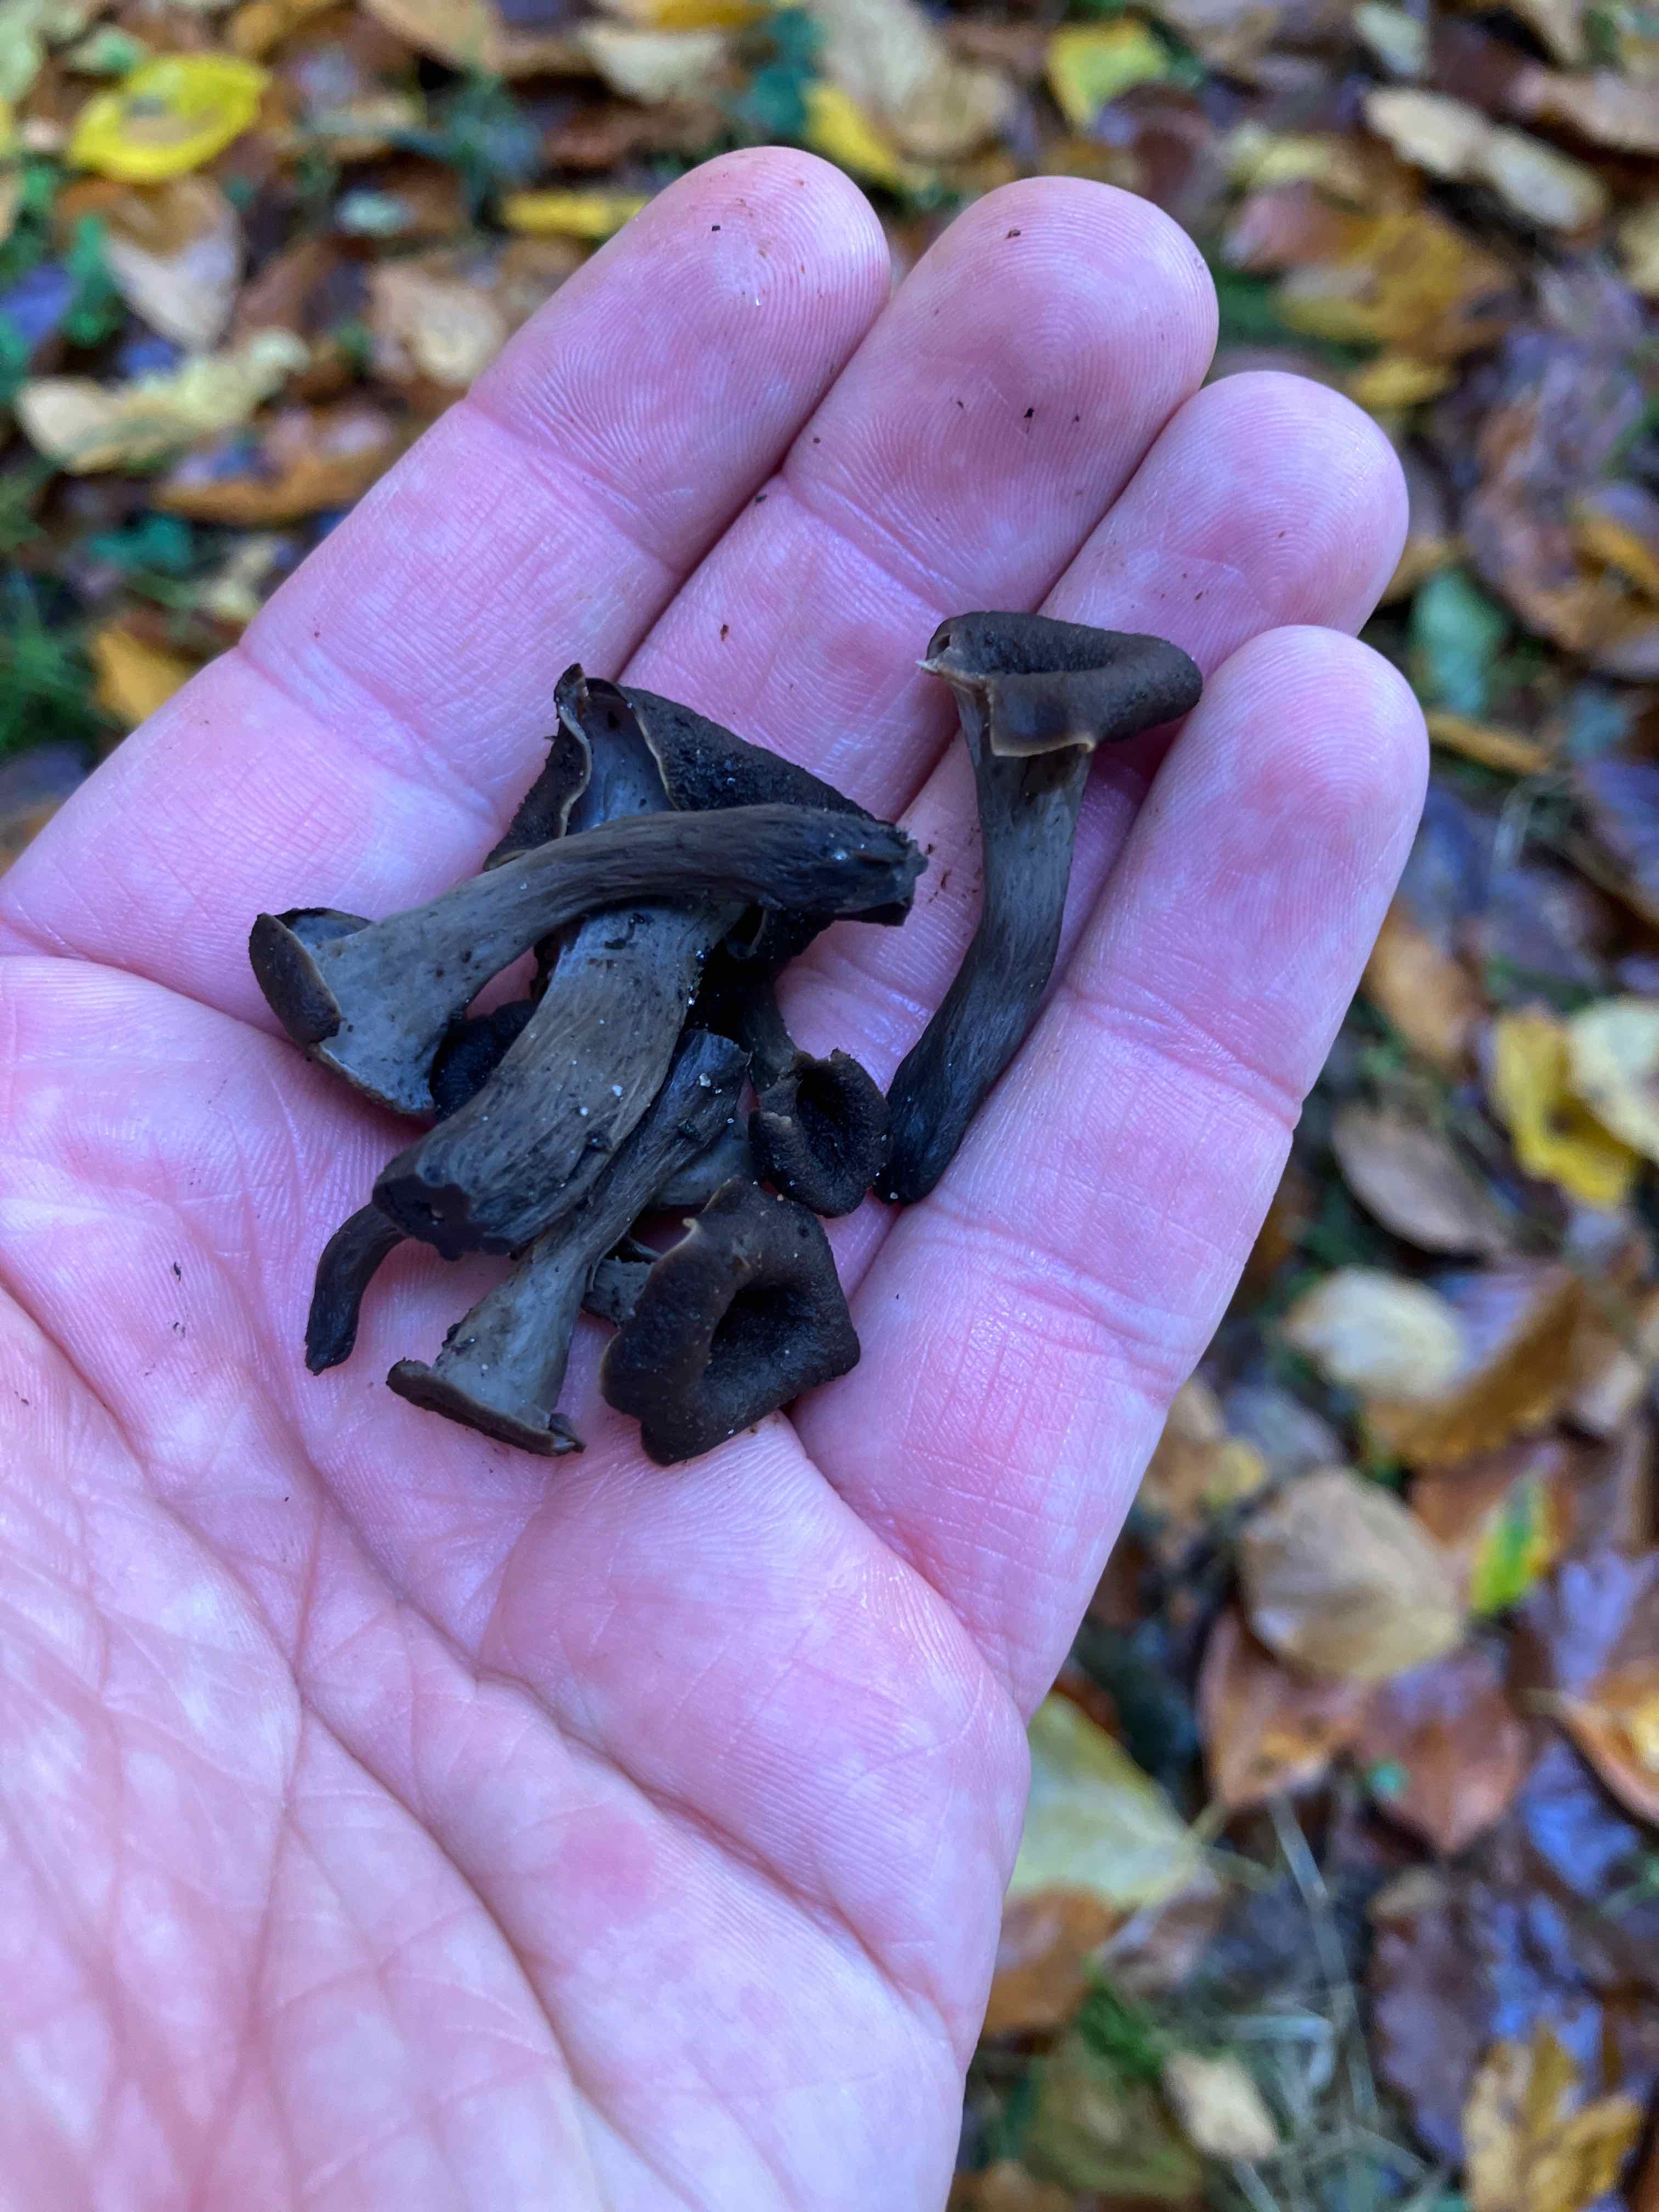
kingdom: Fungi
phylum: Basidiomycota
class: Agaricomycetes
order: Cantharellales
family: Hydnaceae
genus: Craterellus
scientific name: Craterellus cornucopioides
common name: trompetsvamp
